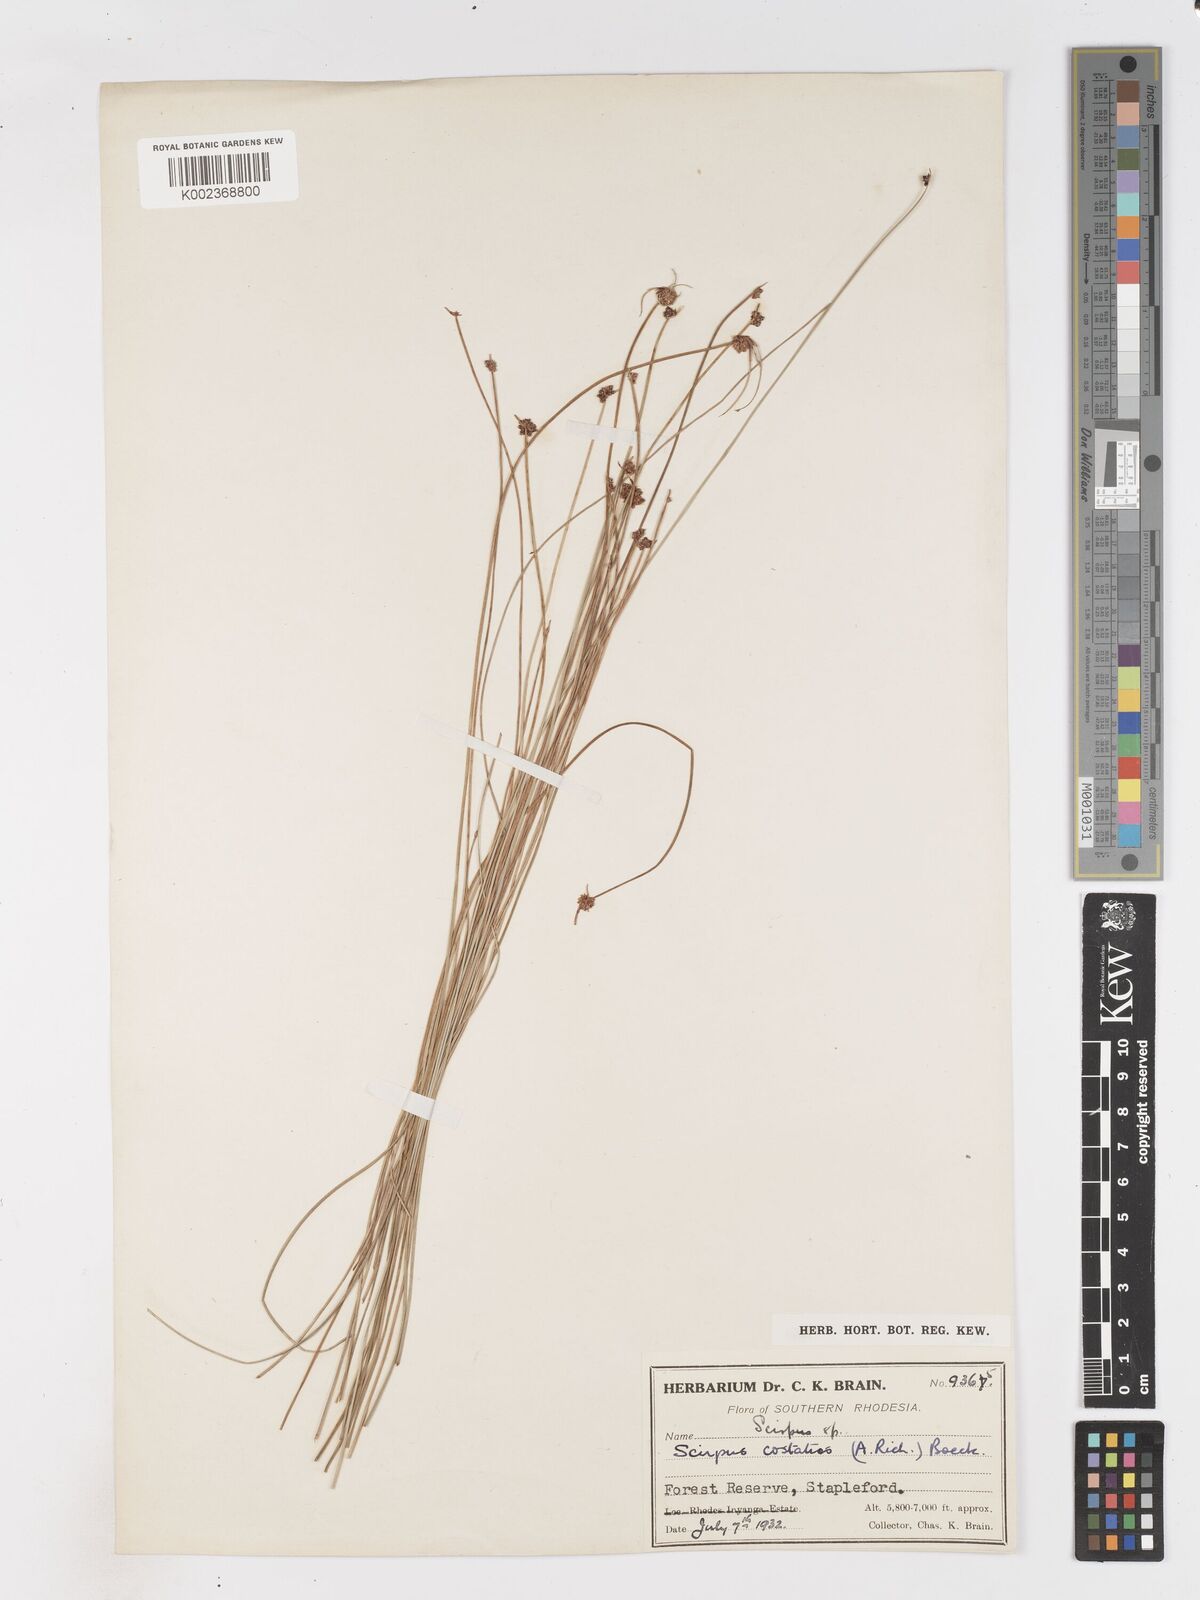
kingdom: Plantae
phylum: Tracheophyta
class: Liliopsida
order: Poales
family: Cyperaceae
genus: Isolepis
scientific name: Isolepis costata
